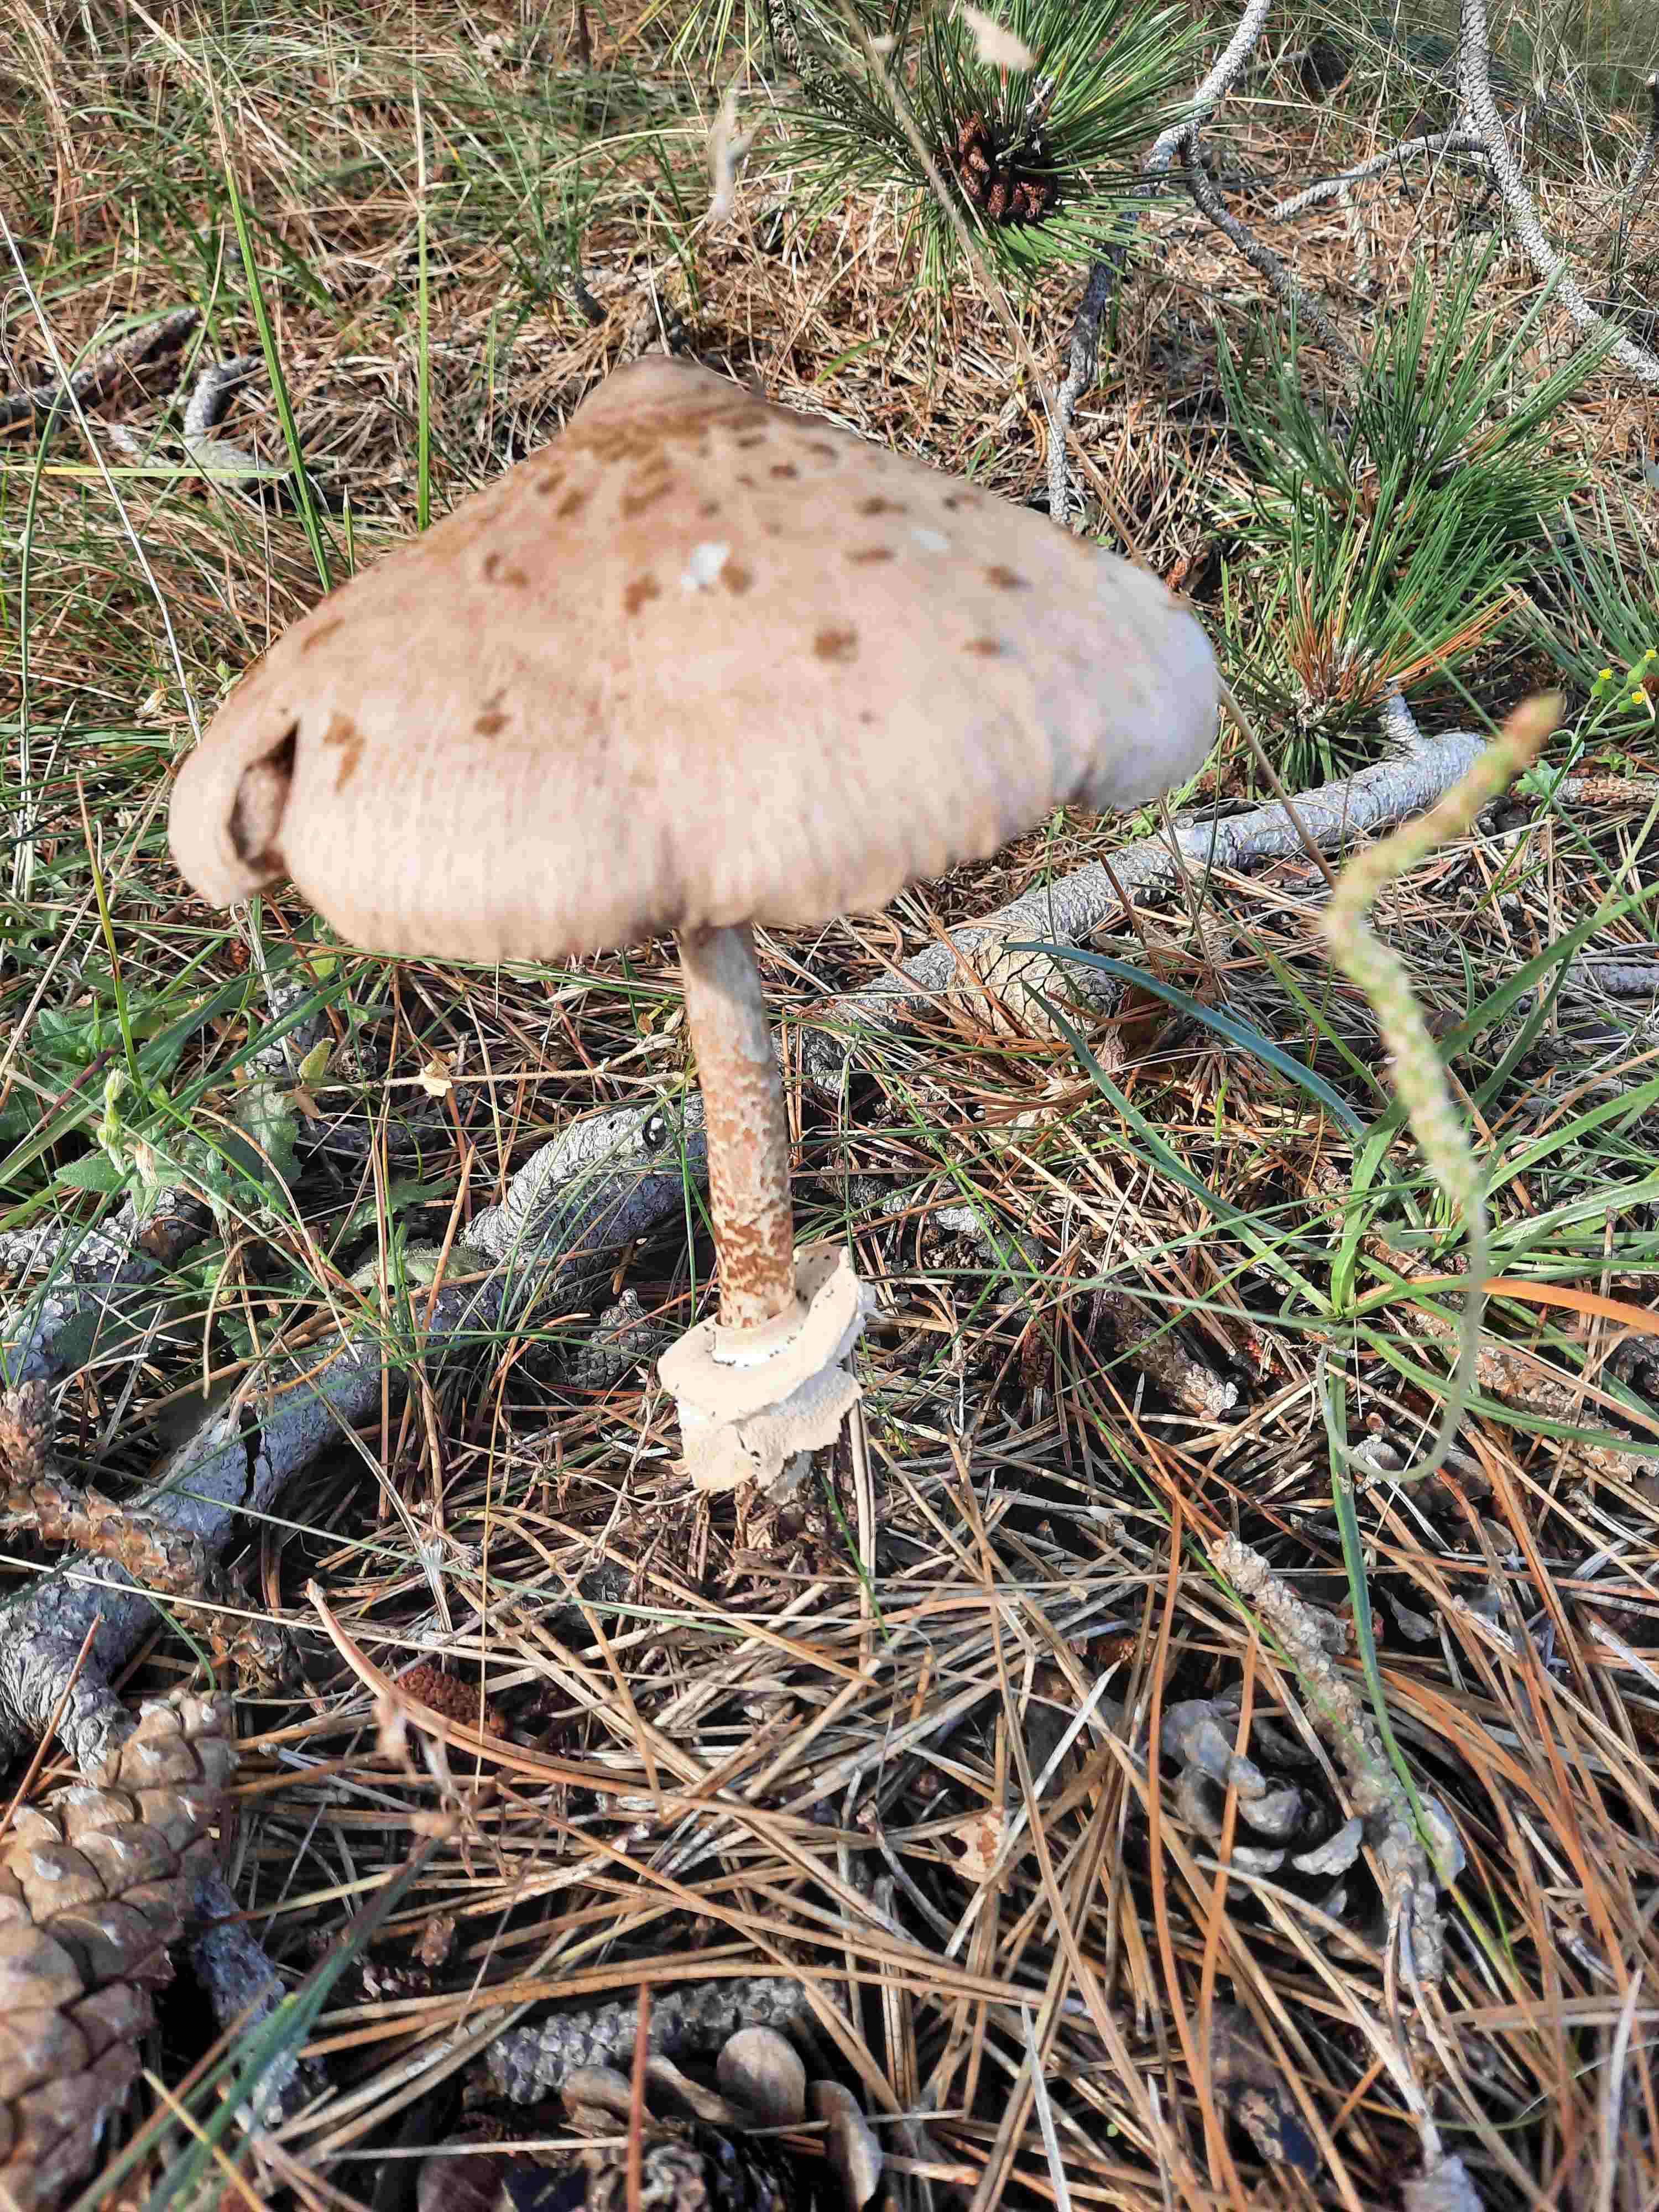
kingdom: Fungi
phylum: Basidiomycota
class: Agaricomycetes
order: Agaricales
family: Agaricaceae
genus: Macrolepiota
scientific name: Macrolepiota procera
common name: stor kæmpeparasolhat
